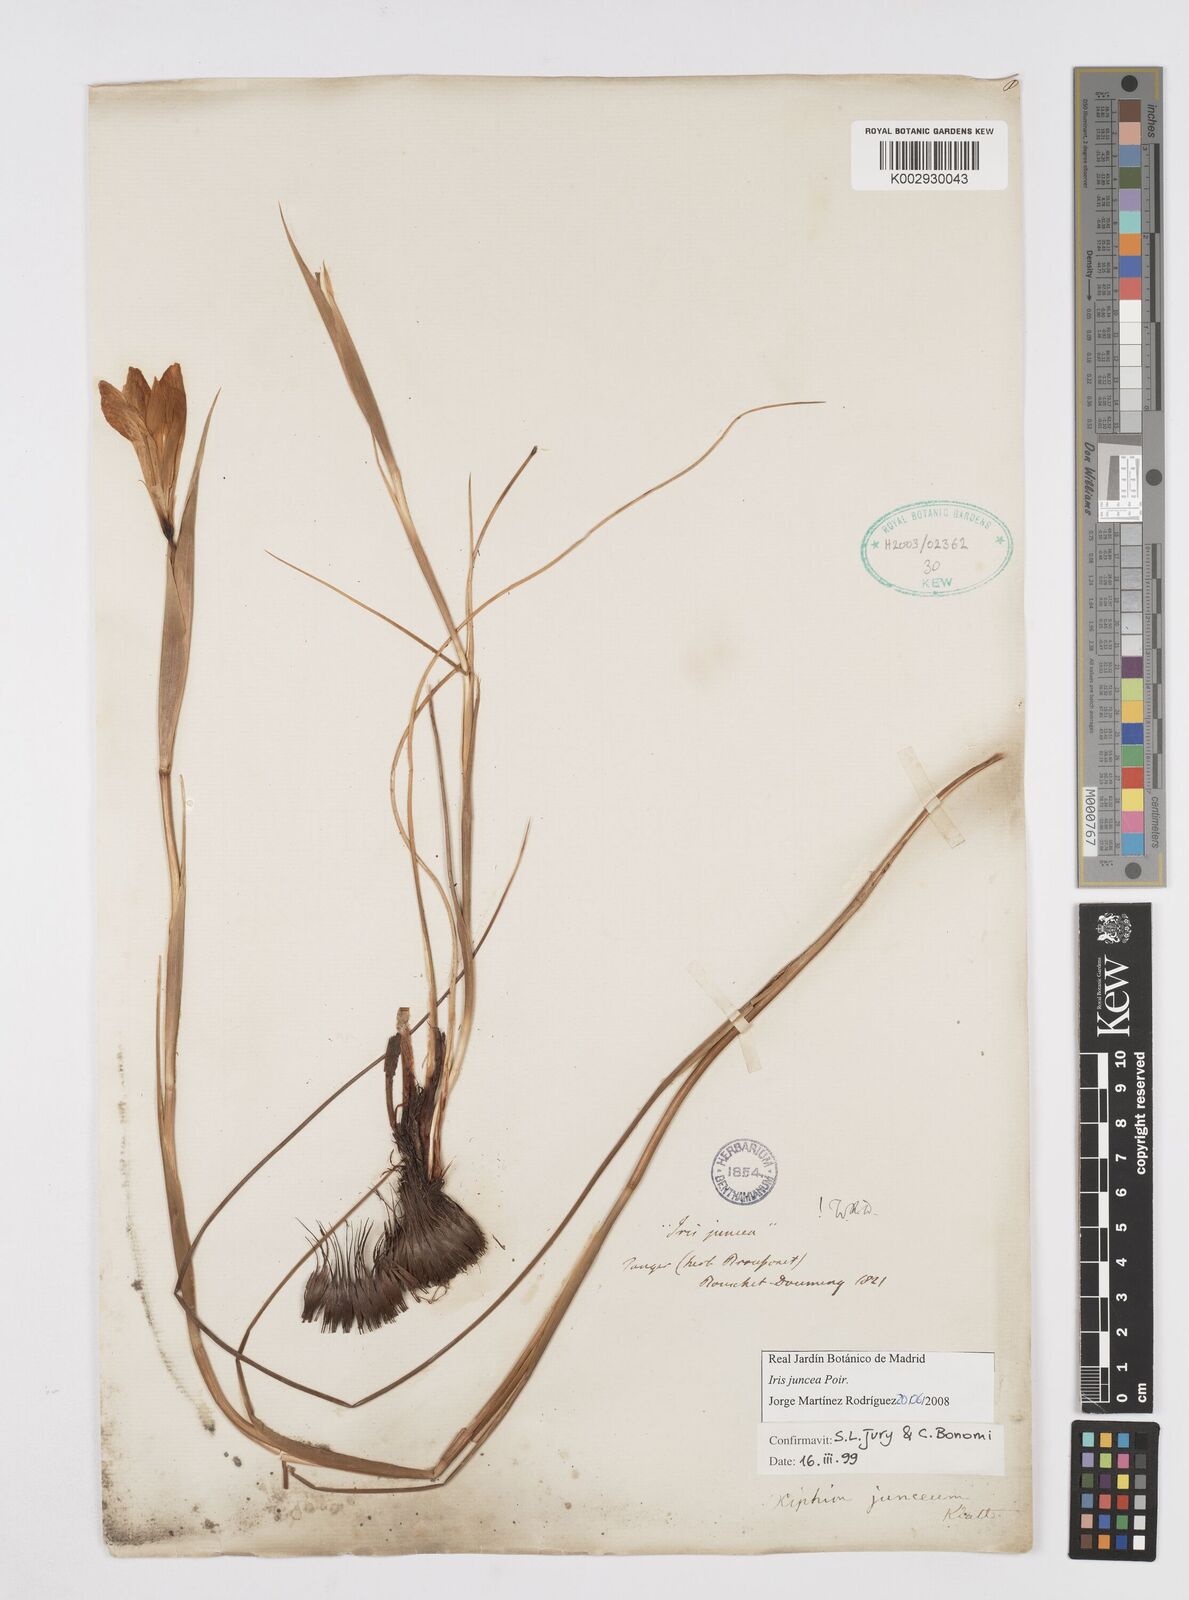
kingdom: Plantae
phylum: Tracheophyta
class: Liliopsida
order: Asparagales
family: Iridaceae
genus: Iris
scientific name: Iris juncea
